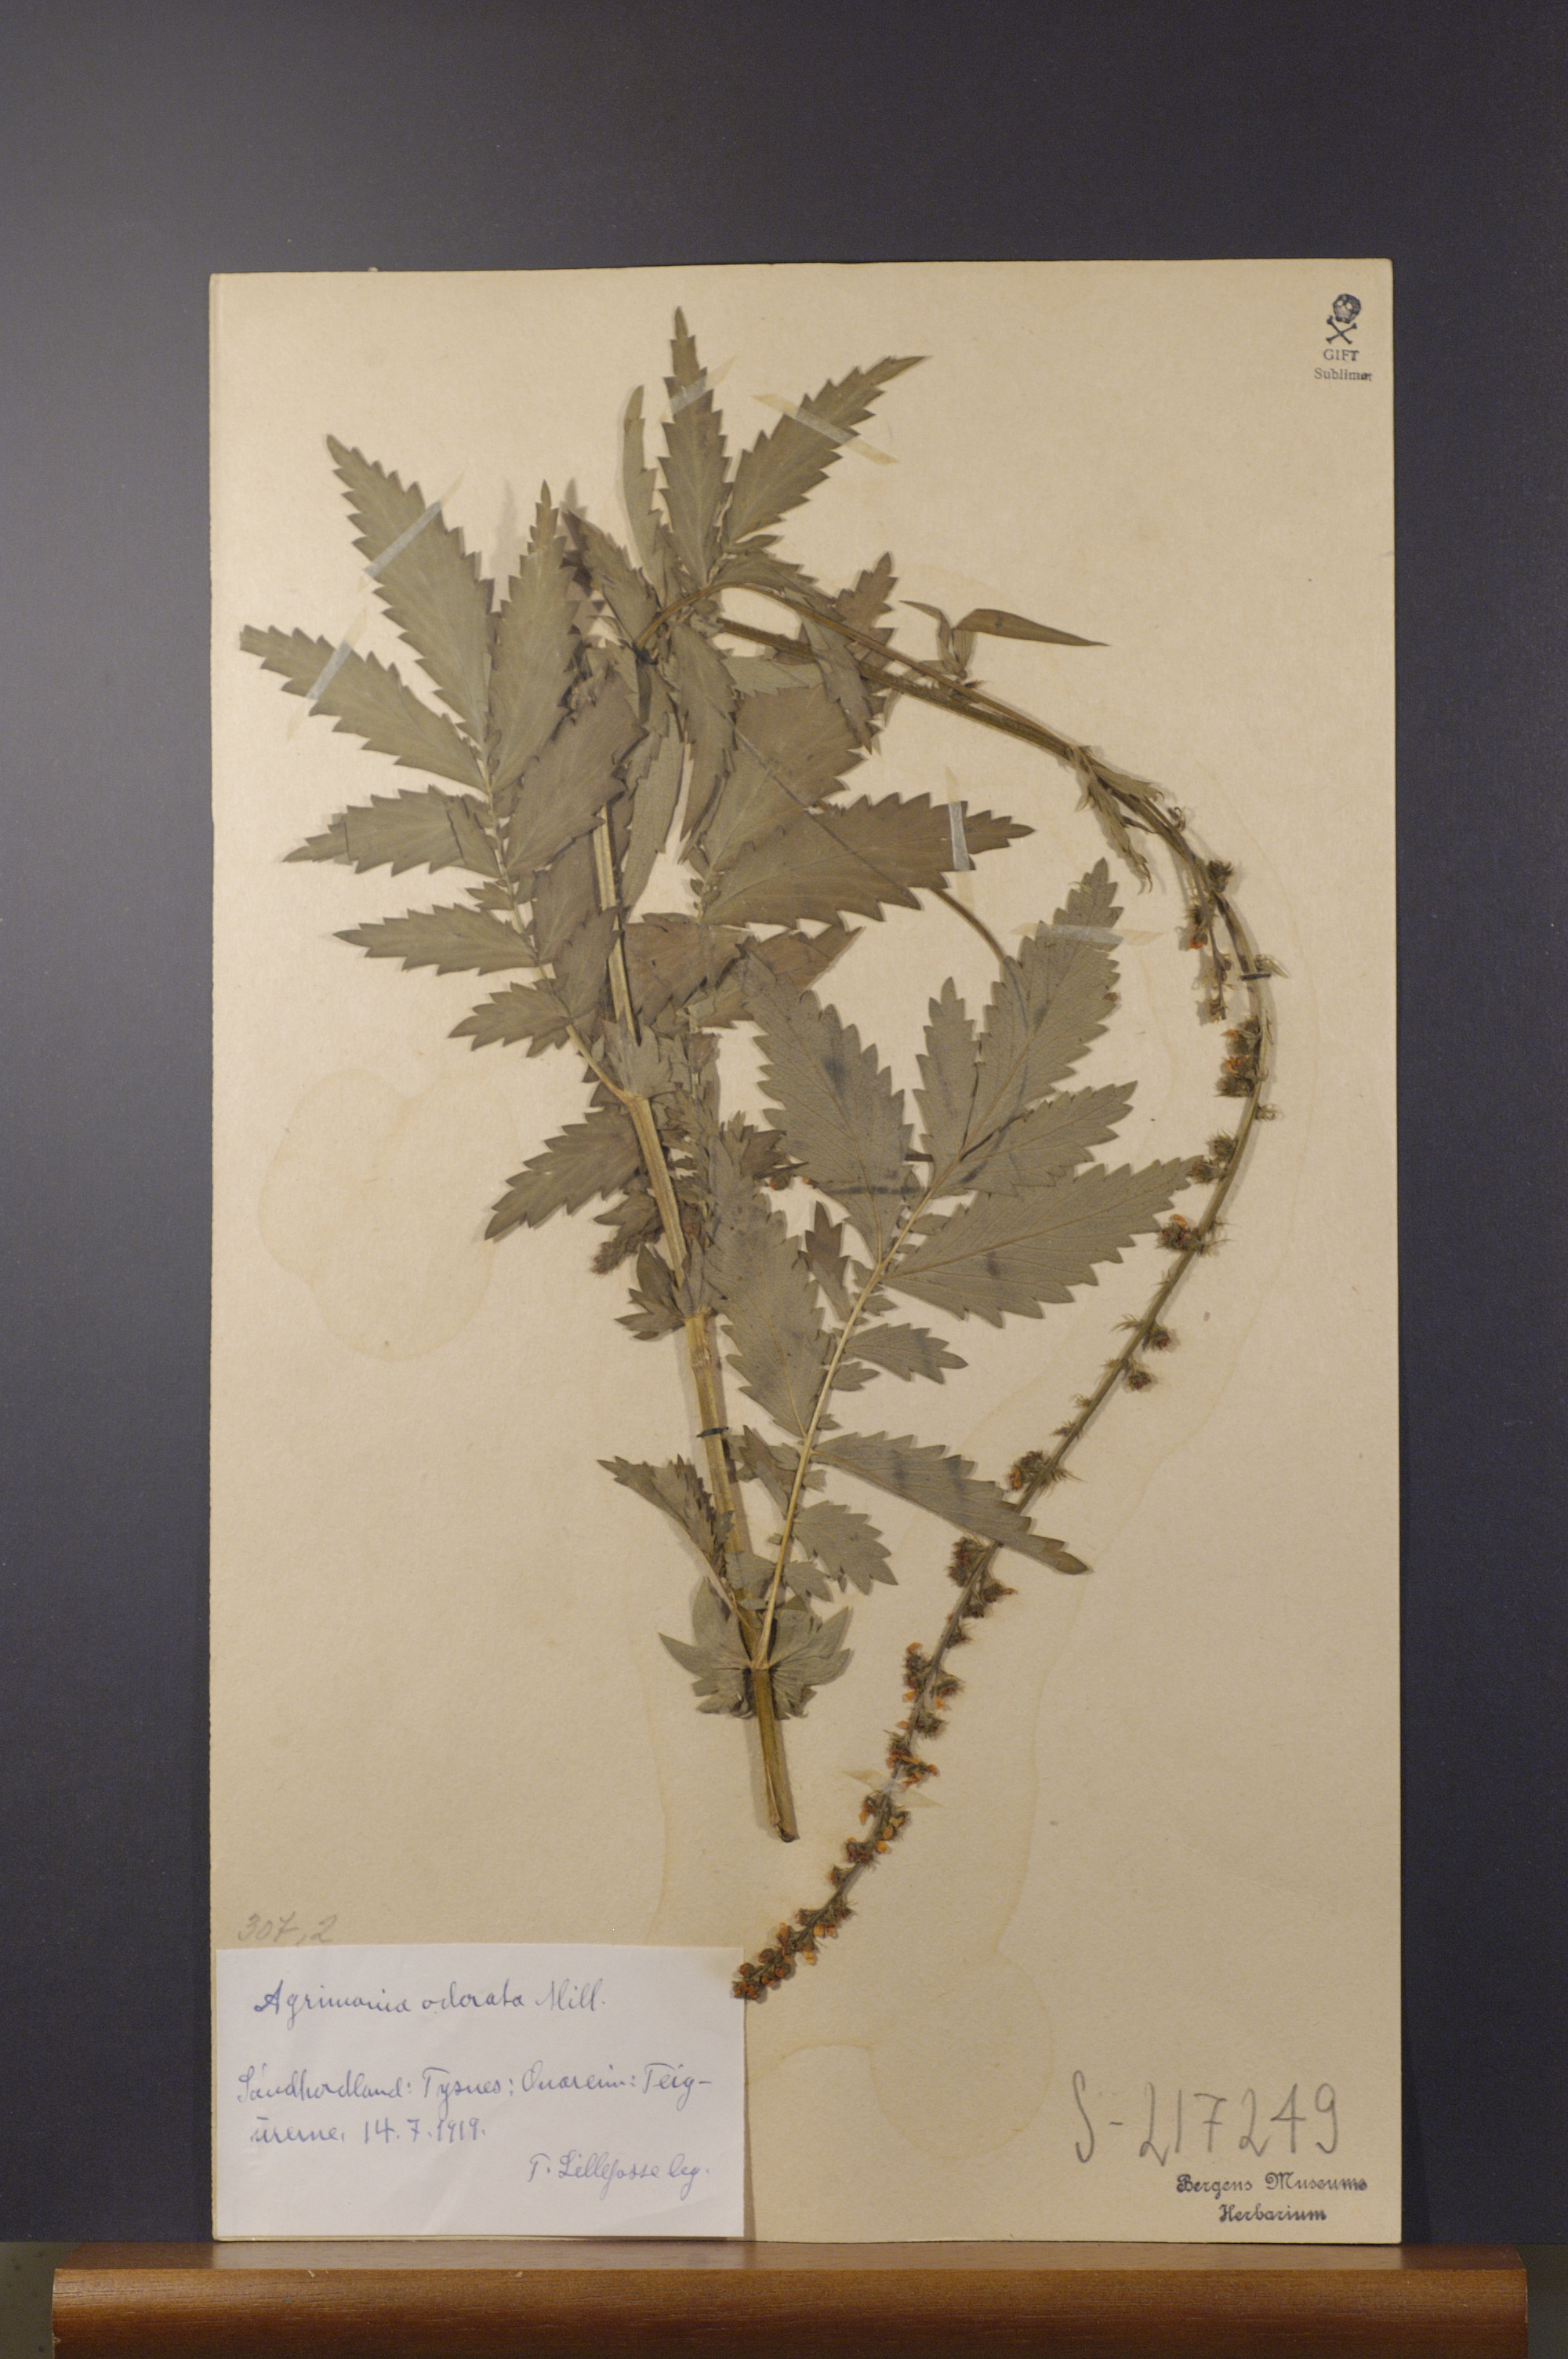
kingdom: Plantae
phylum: Tracheophyta
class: Magnoliopsida
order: Rosales
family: Rosaceae
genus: Agrimonia
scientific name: Agrimonia procera
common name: Fragrant agrimony
